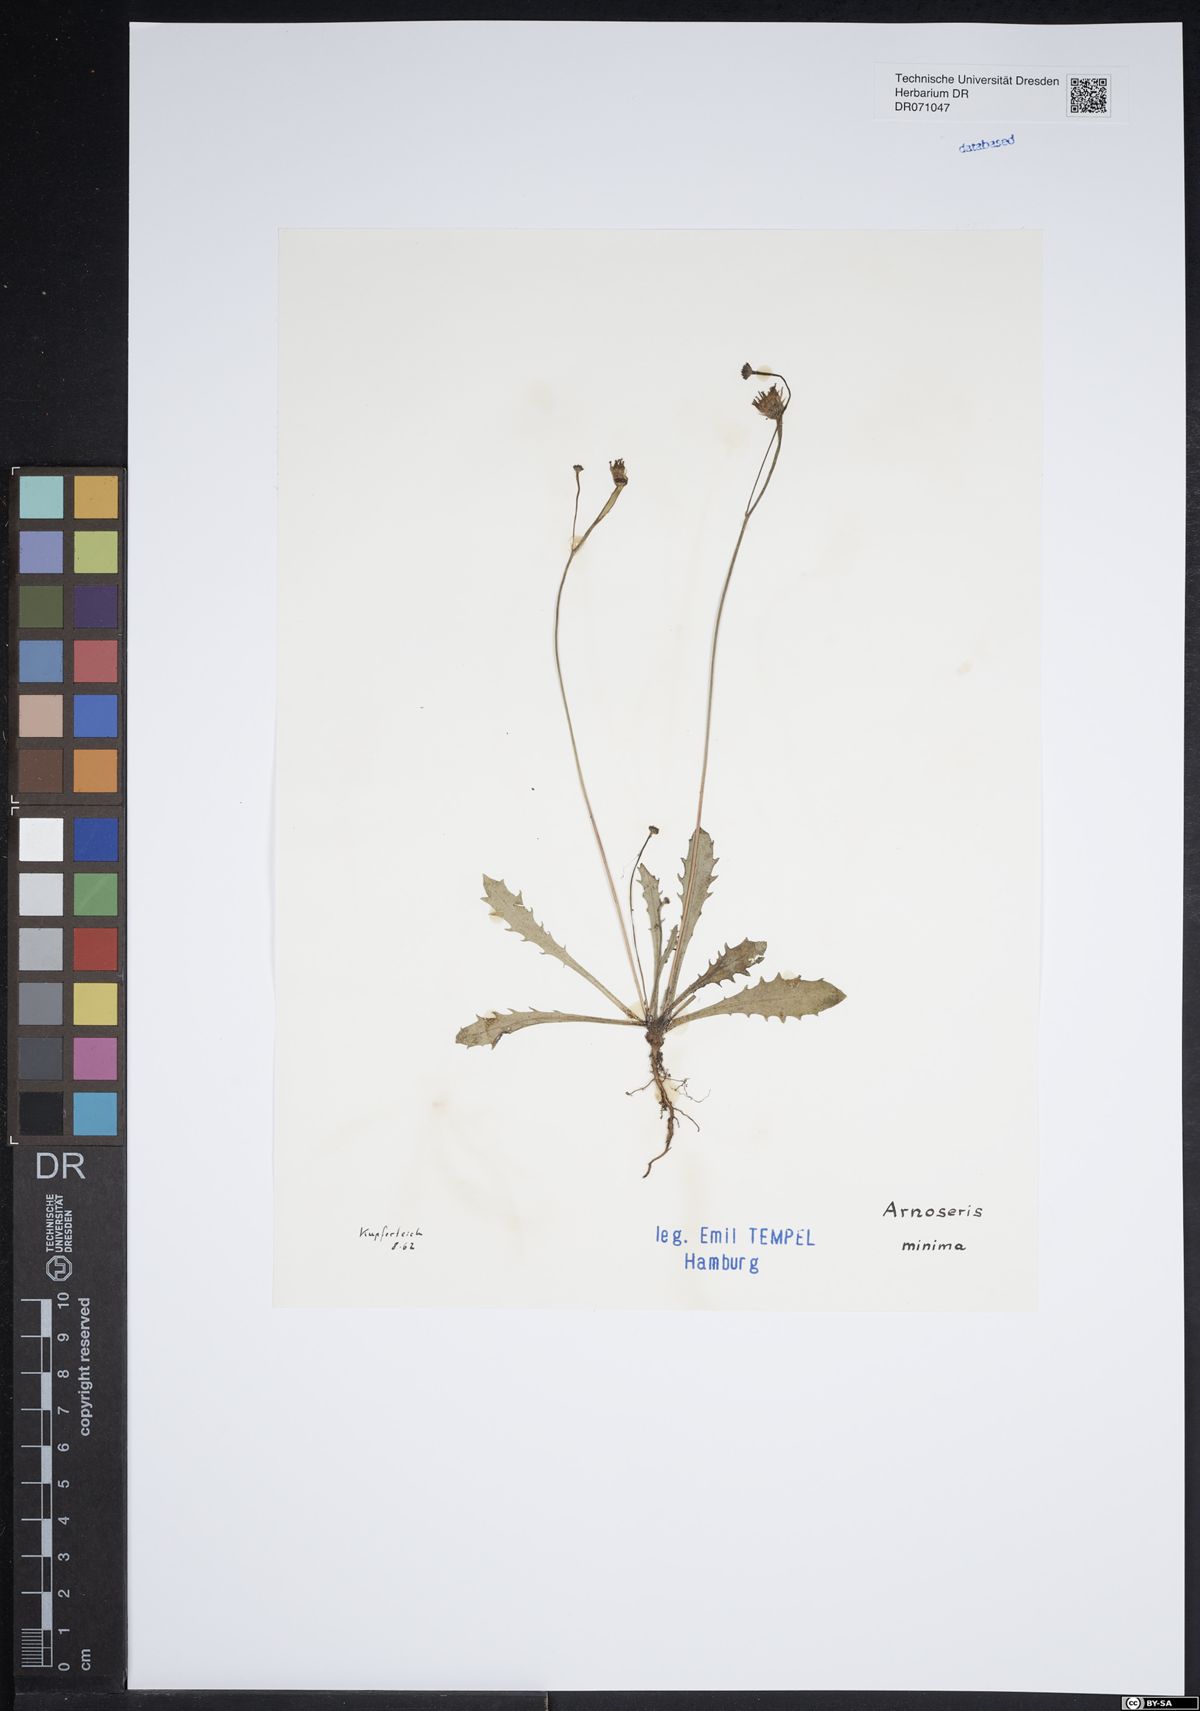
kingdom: Plantae
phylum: Tracheophyta
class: Magnoliopsida
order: Asterales
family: Asteraceae
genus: Arnoseris
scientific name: Arnoseris minima
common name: Lamb's succory
